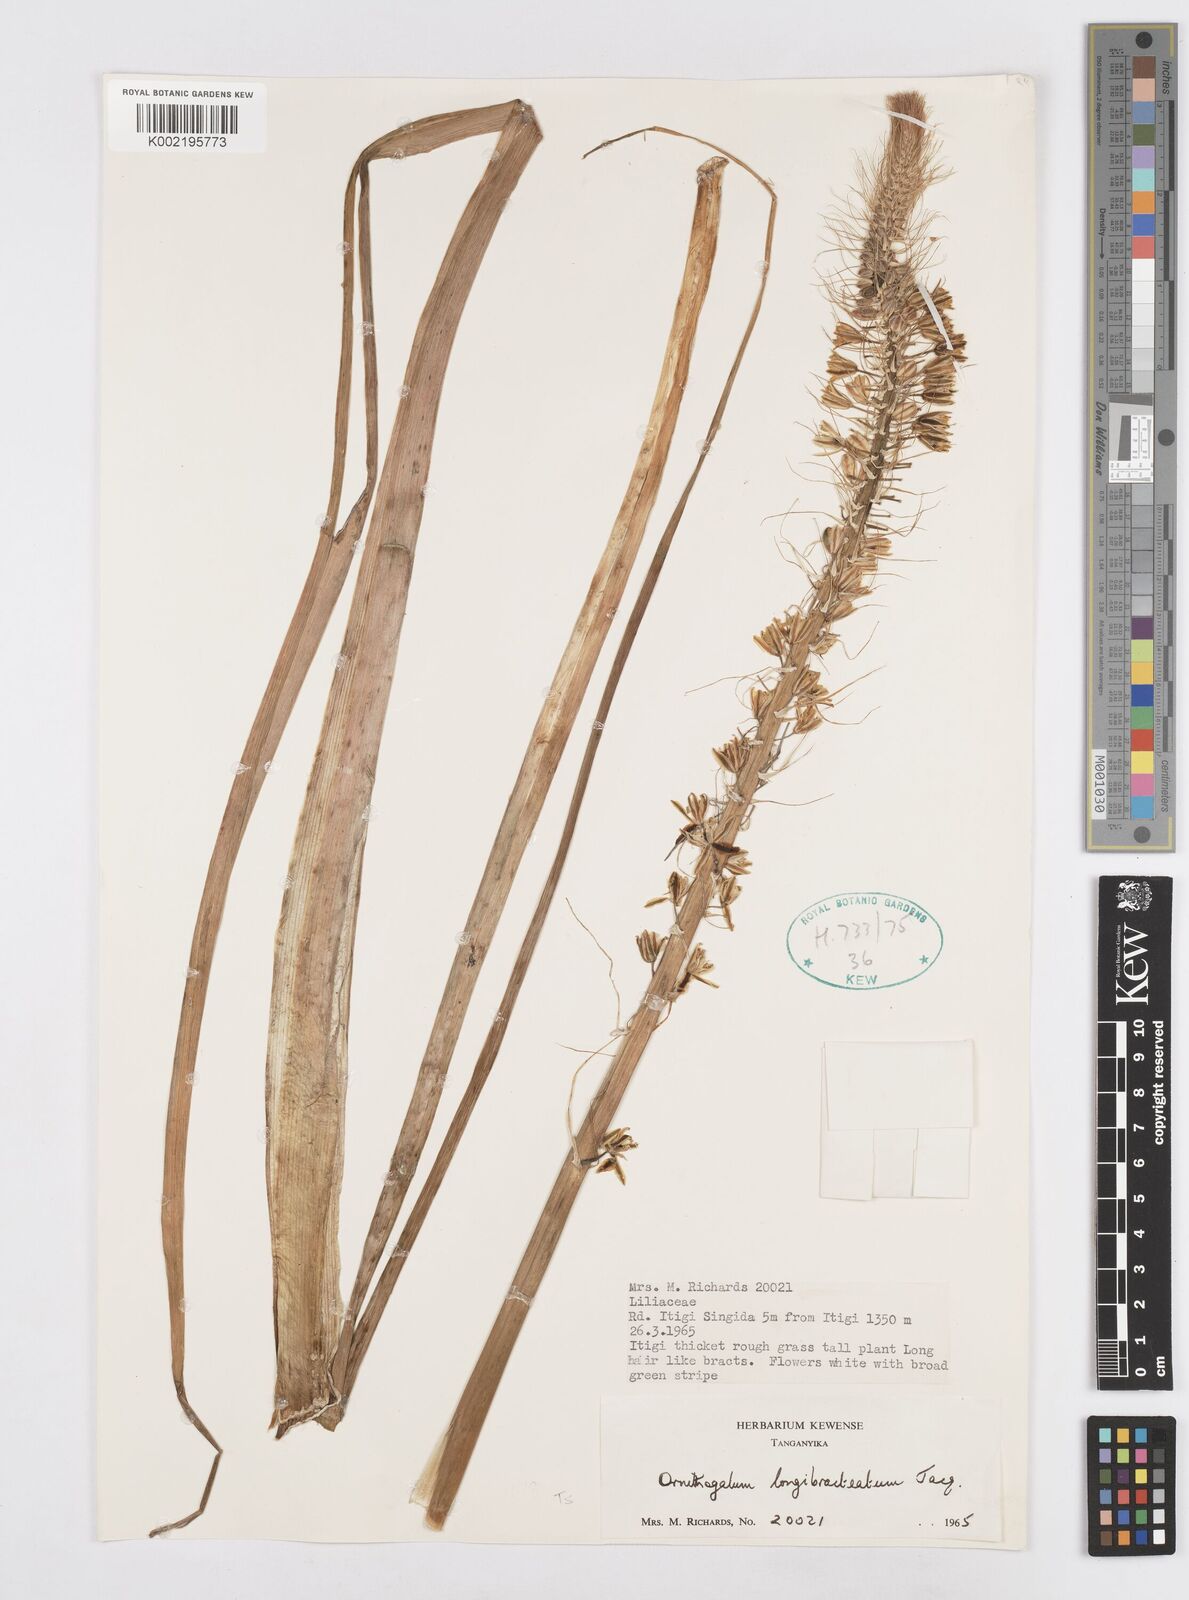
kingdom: Plantae
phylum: Tracheophyta
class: Liliopsida
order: Asparagales
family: Asparagaceae
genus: Albuca
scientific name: Albuca bracteata
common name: Sea-onion
